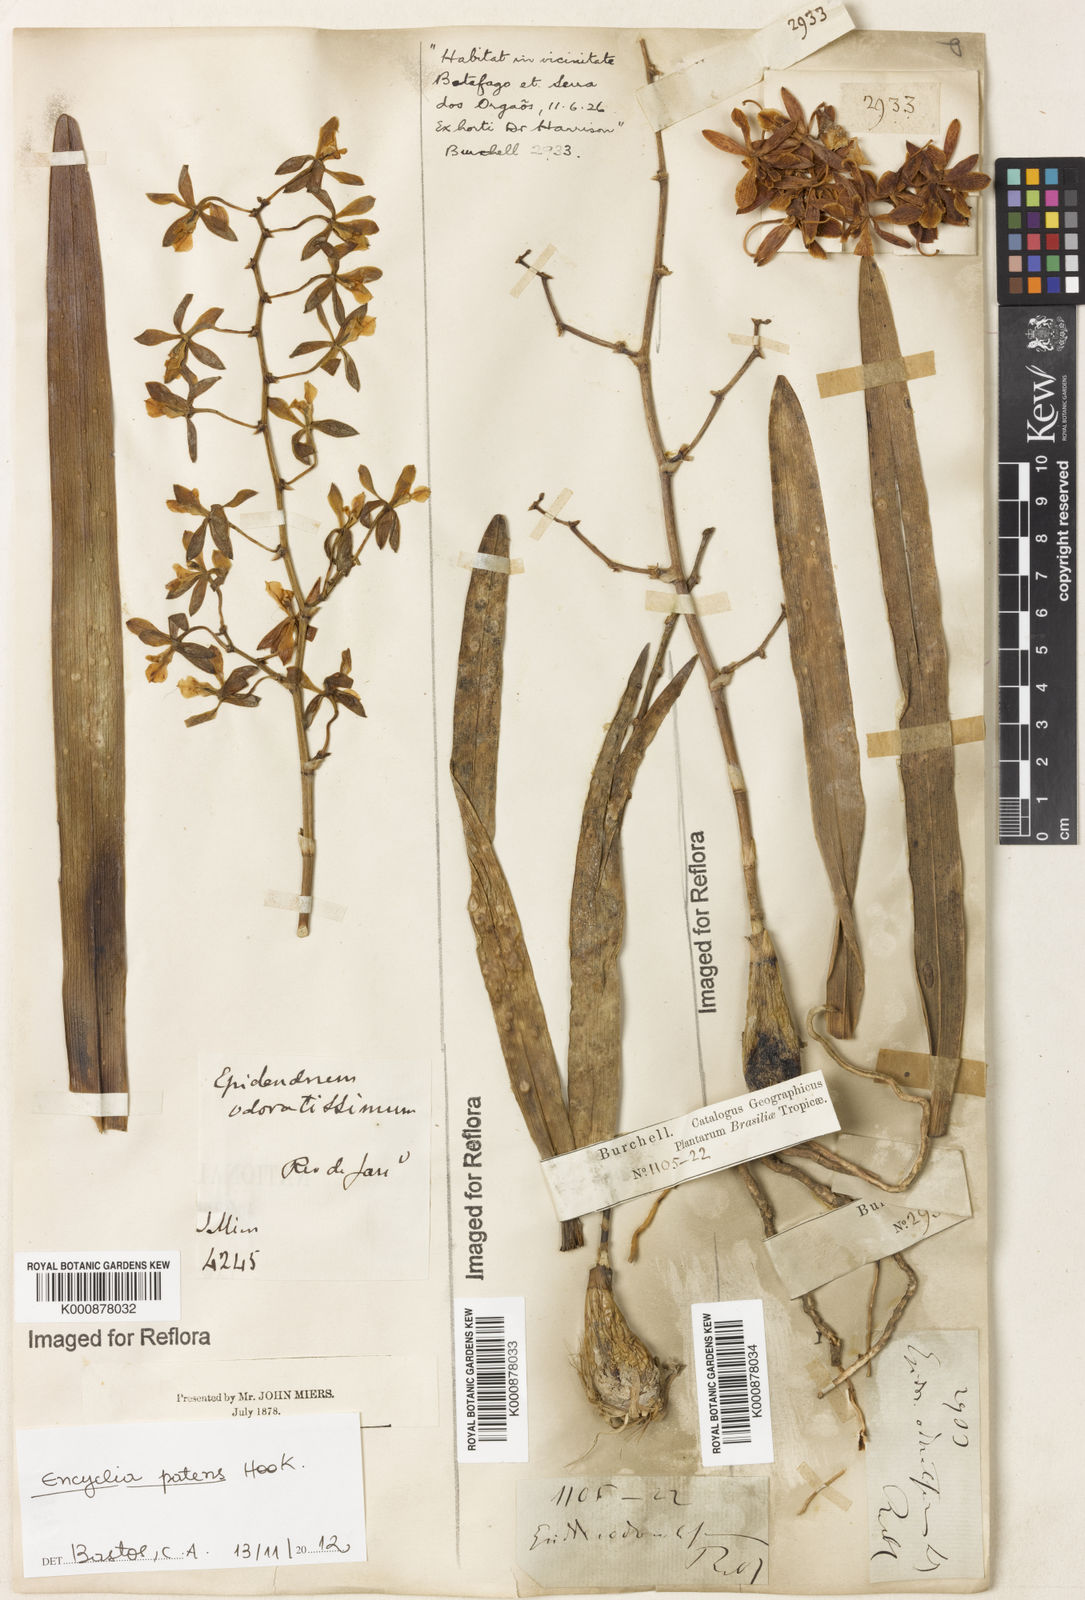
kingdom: Plantae
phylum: Tracheophyta
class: Liliopsida
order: Asparagales
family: Orchidaceae
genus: Encyclia
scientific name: Encyclia patens
